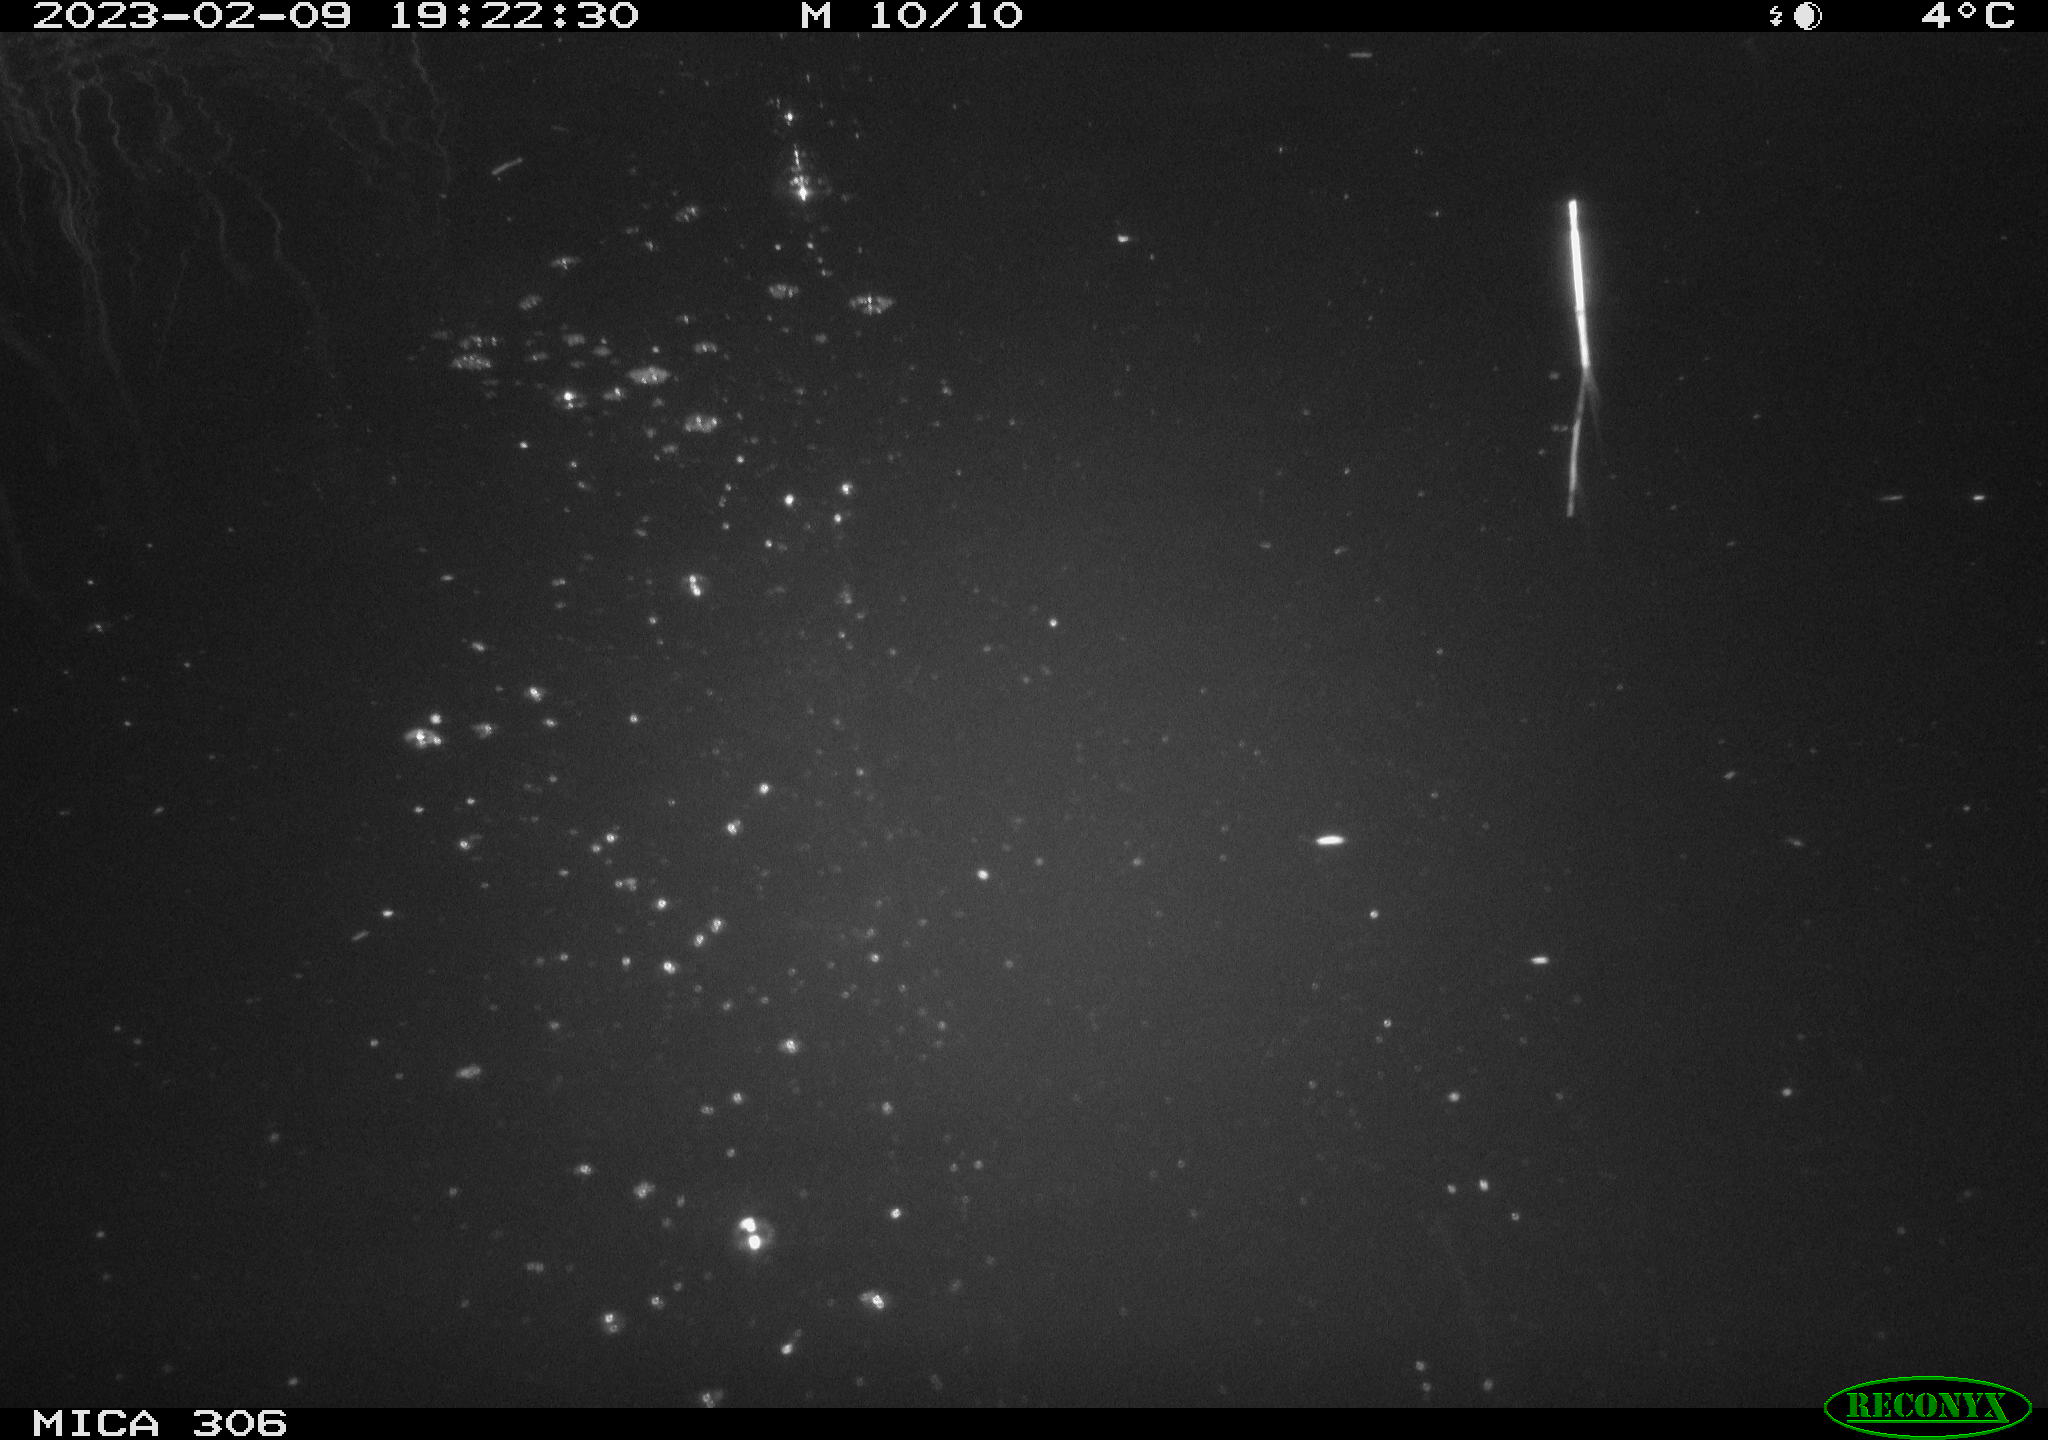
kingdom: Animalia
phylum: Chordata
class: Mammalia
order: Rodentia
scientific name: Rodentia
